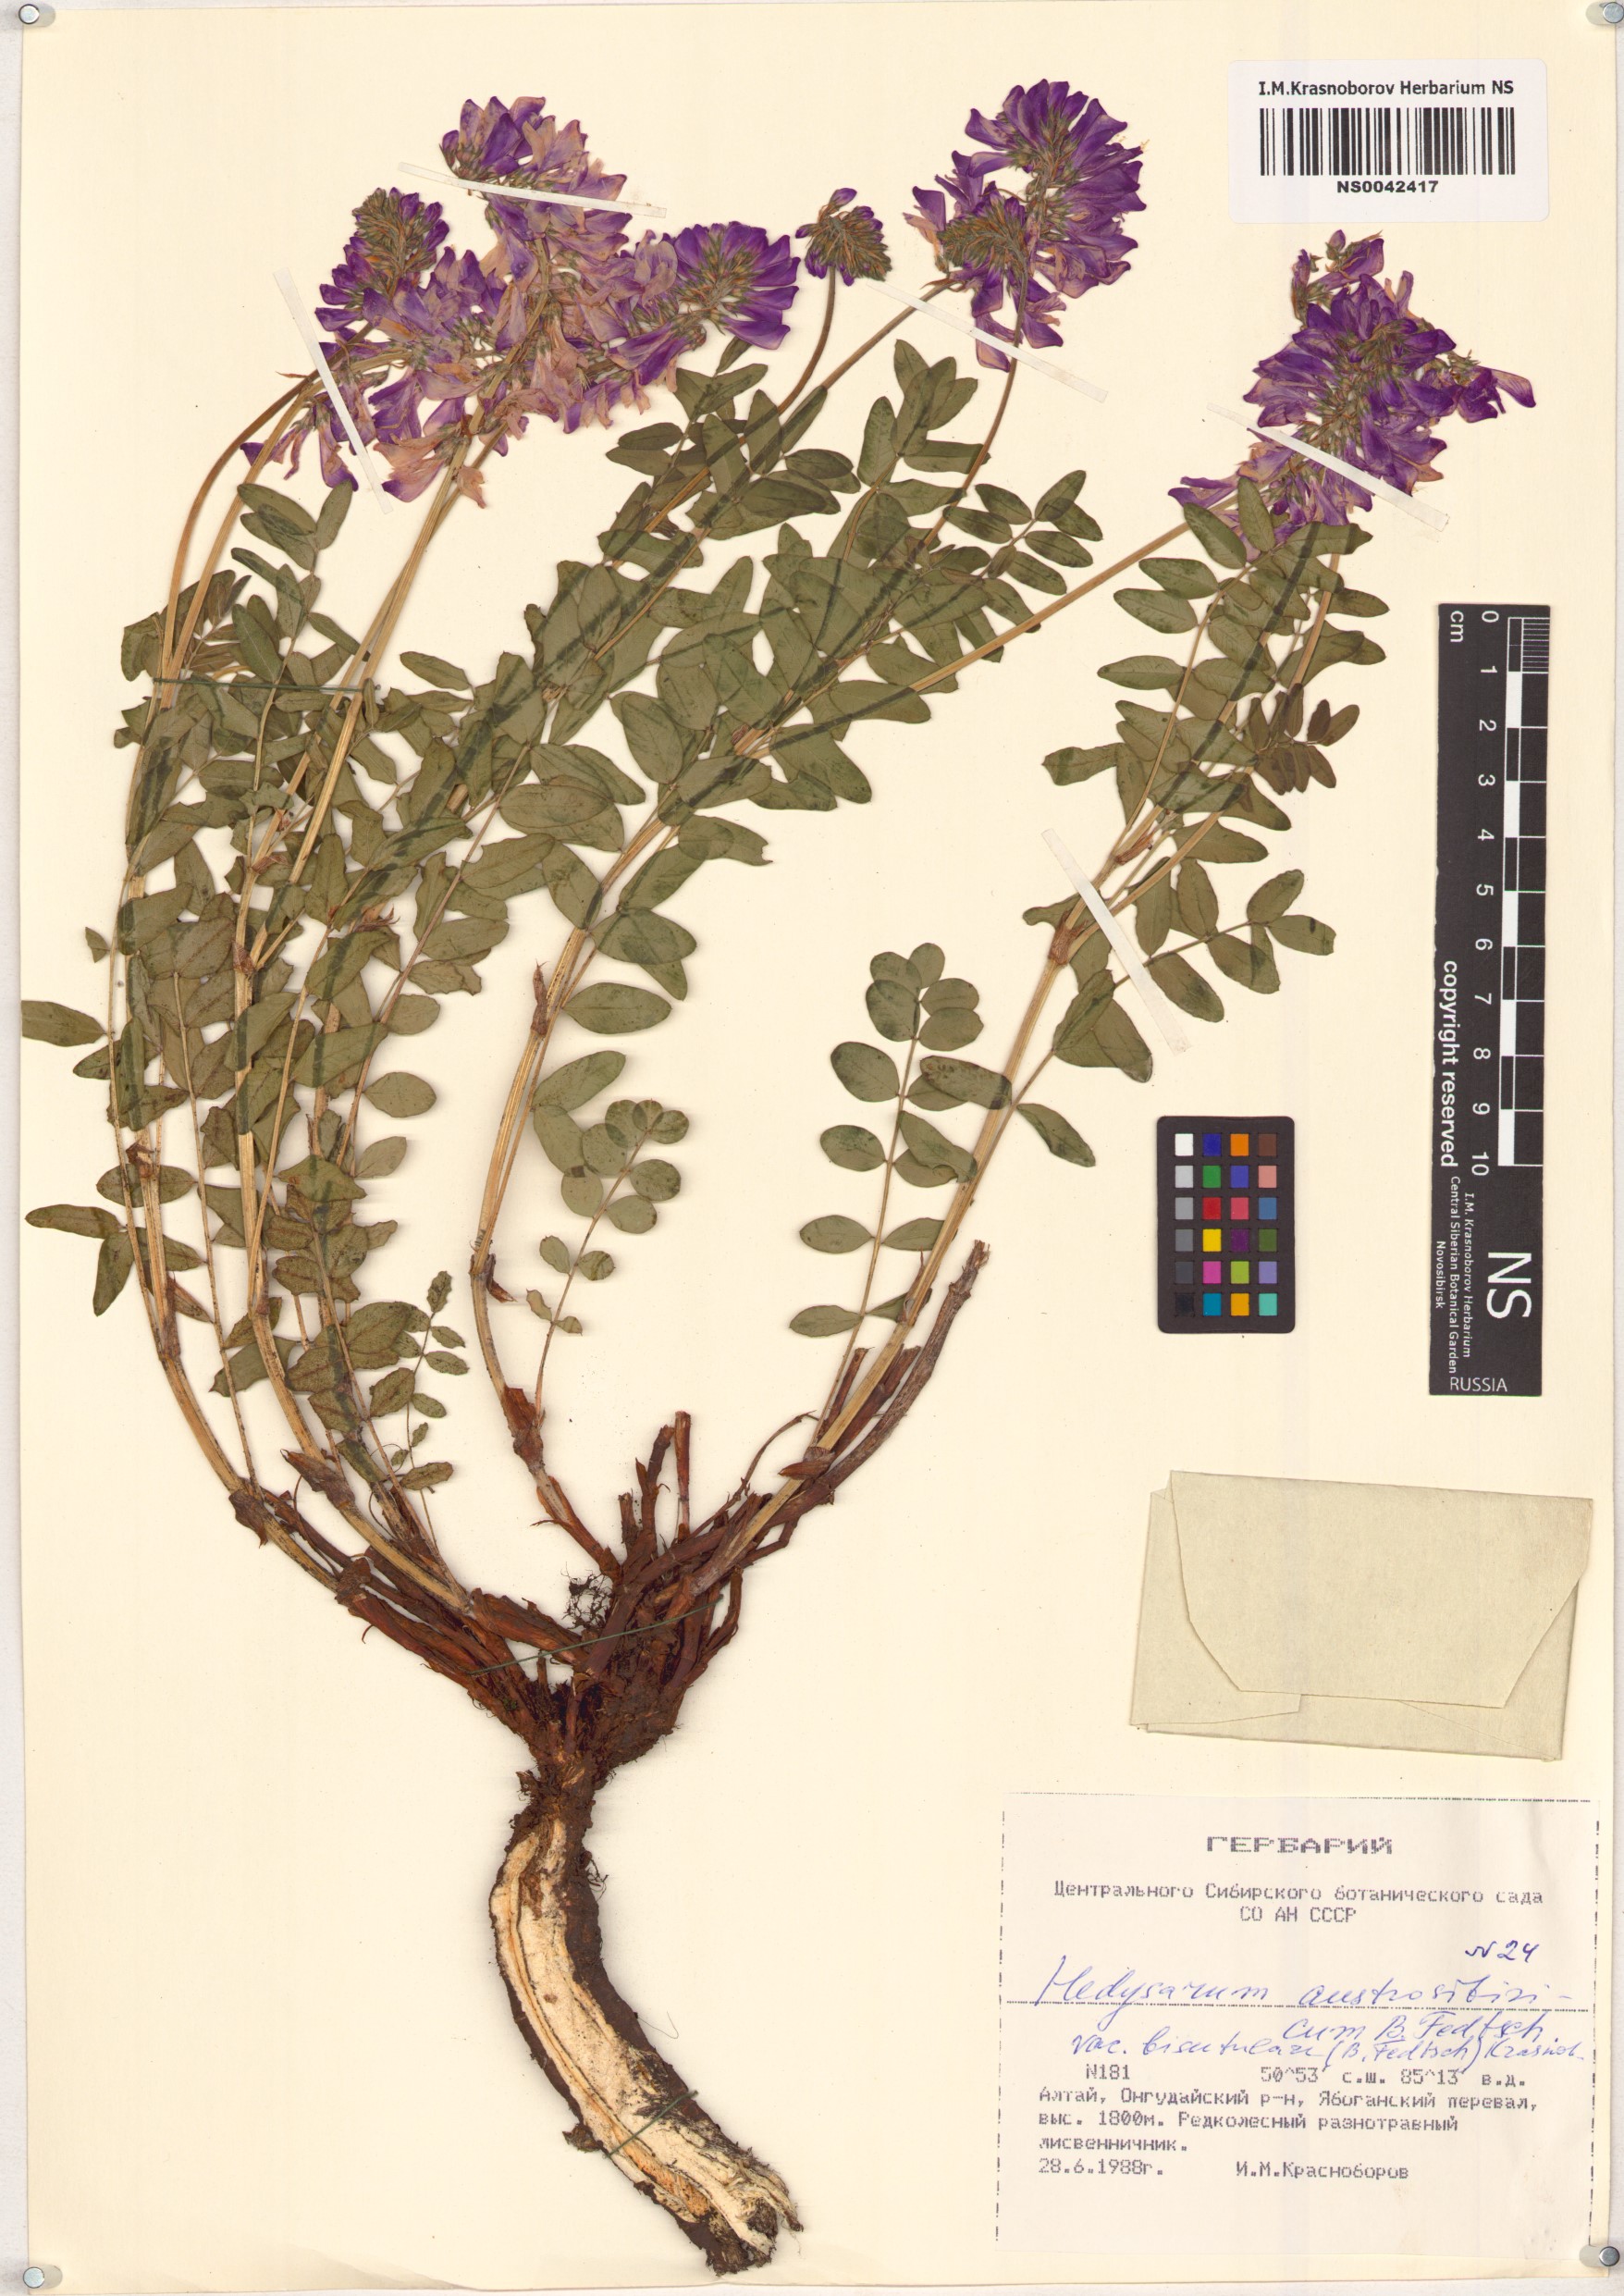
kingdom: Plantae
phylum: Tracheophyta
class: Magnoliopsida
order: Fabales
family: Fabaceae
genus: Hedysarum
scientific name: Hedysarum neglectum
